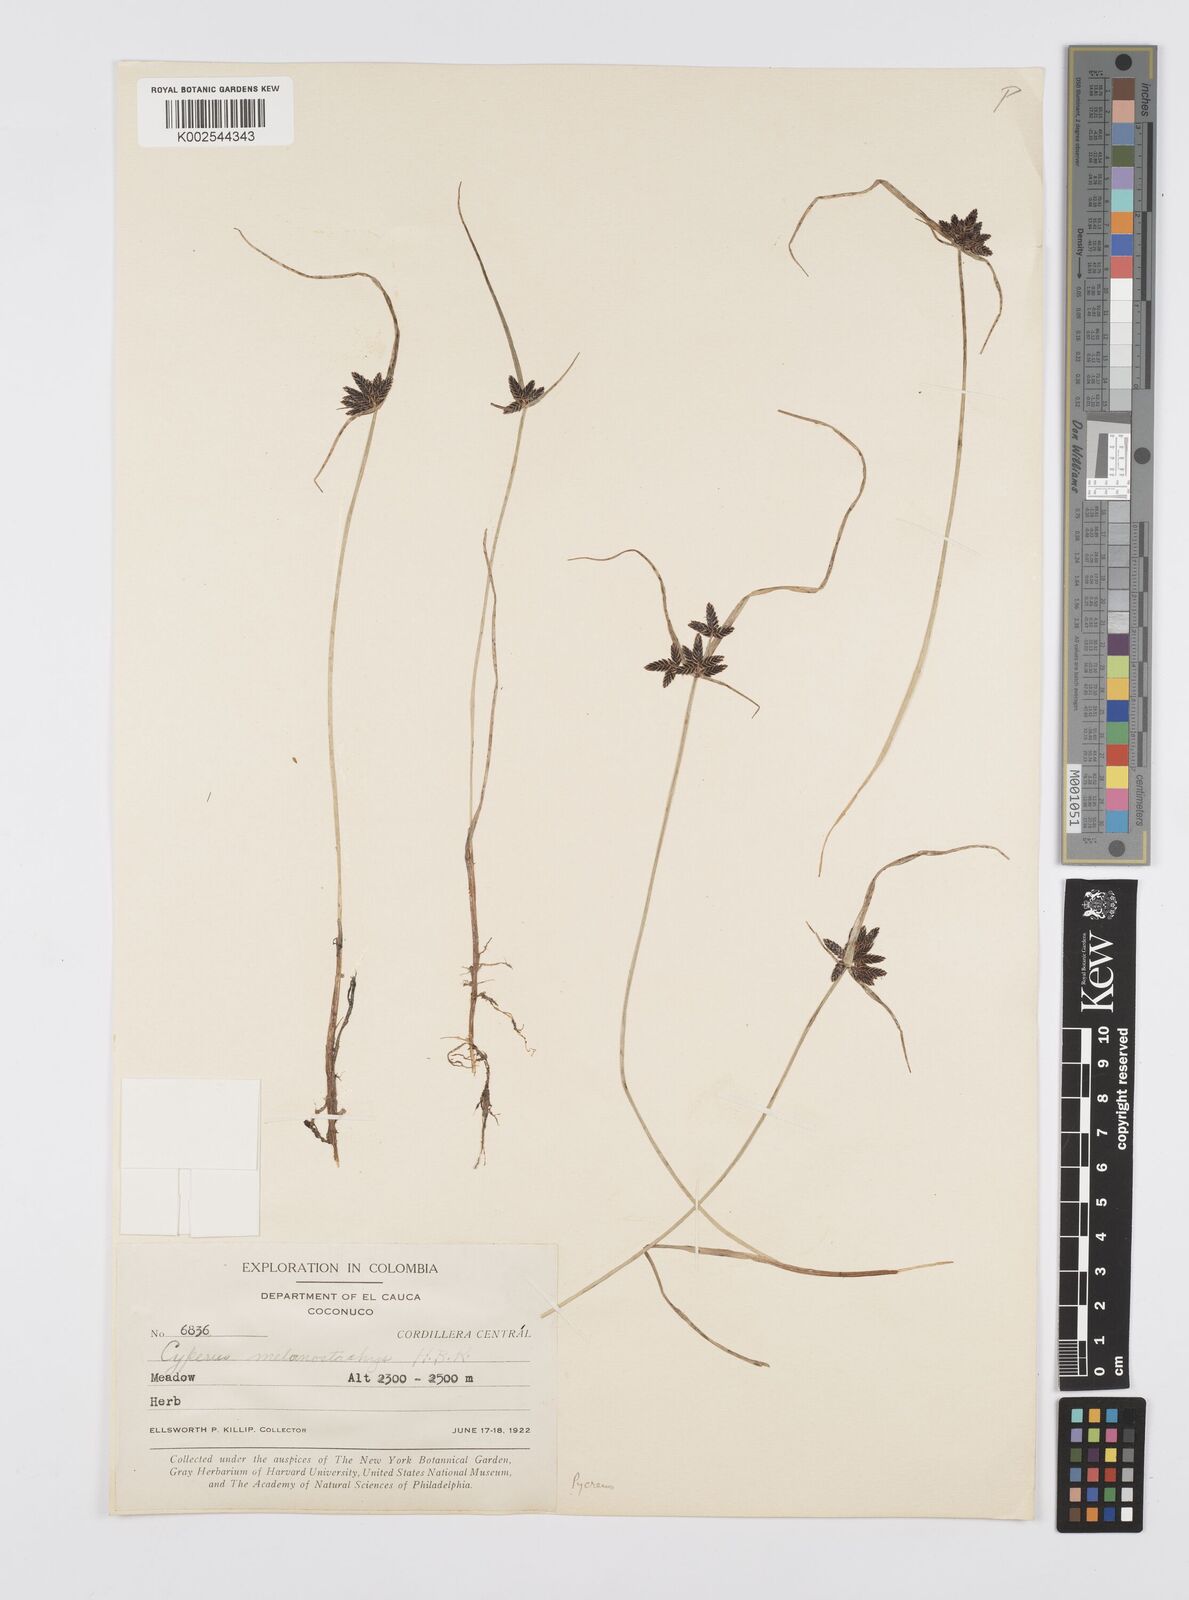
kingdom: Plantae
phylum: Tracheophyta
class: Liliopsida
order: Poales
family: Cyperaceae
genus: Cyperus
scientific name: Cyperus melanostachyus
